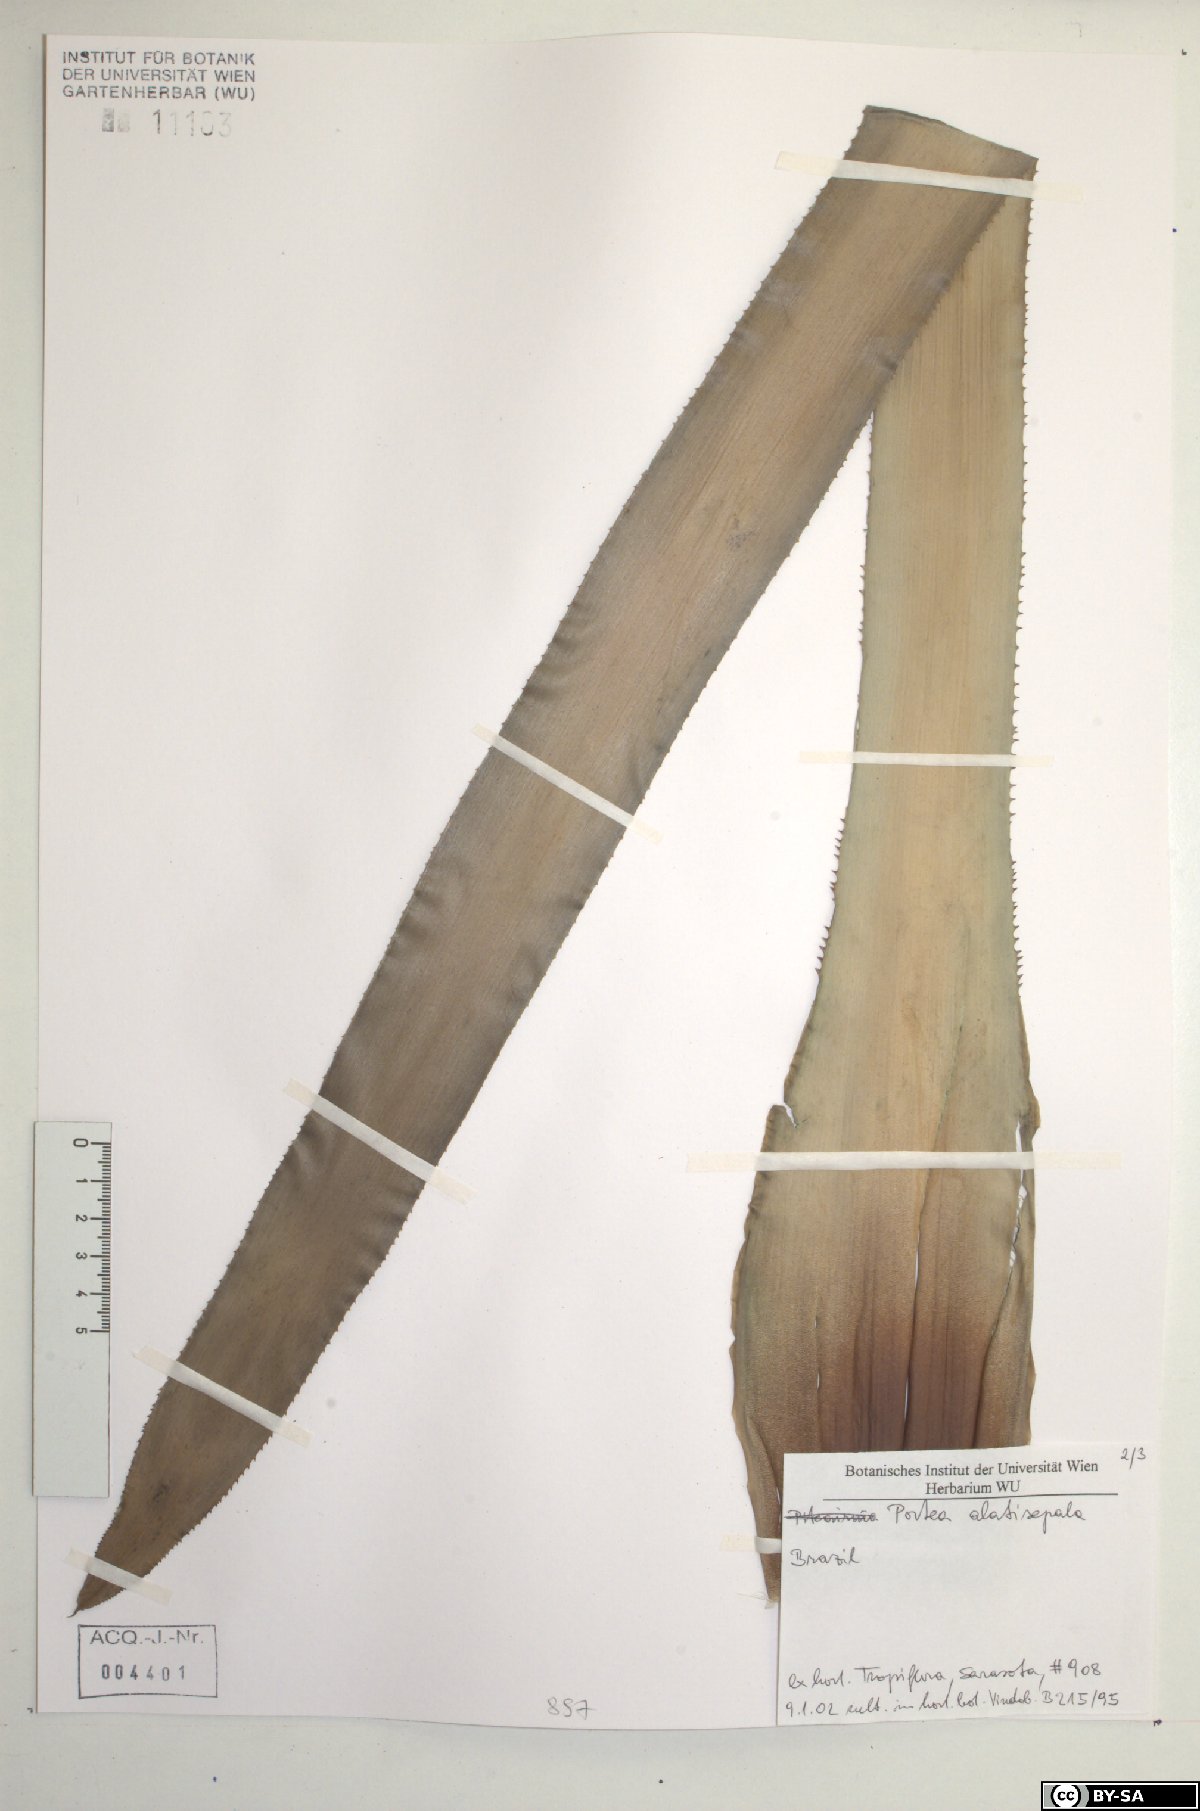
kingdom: Plantae
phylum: Tracheophyta
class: Liliopsida
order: Poales
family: Bromeliaceae
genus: Portea
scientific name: Portea alatisepala
